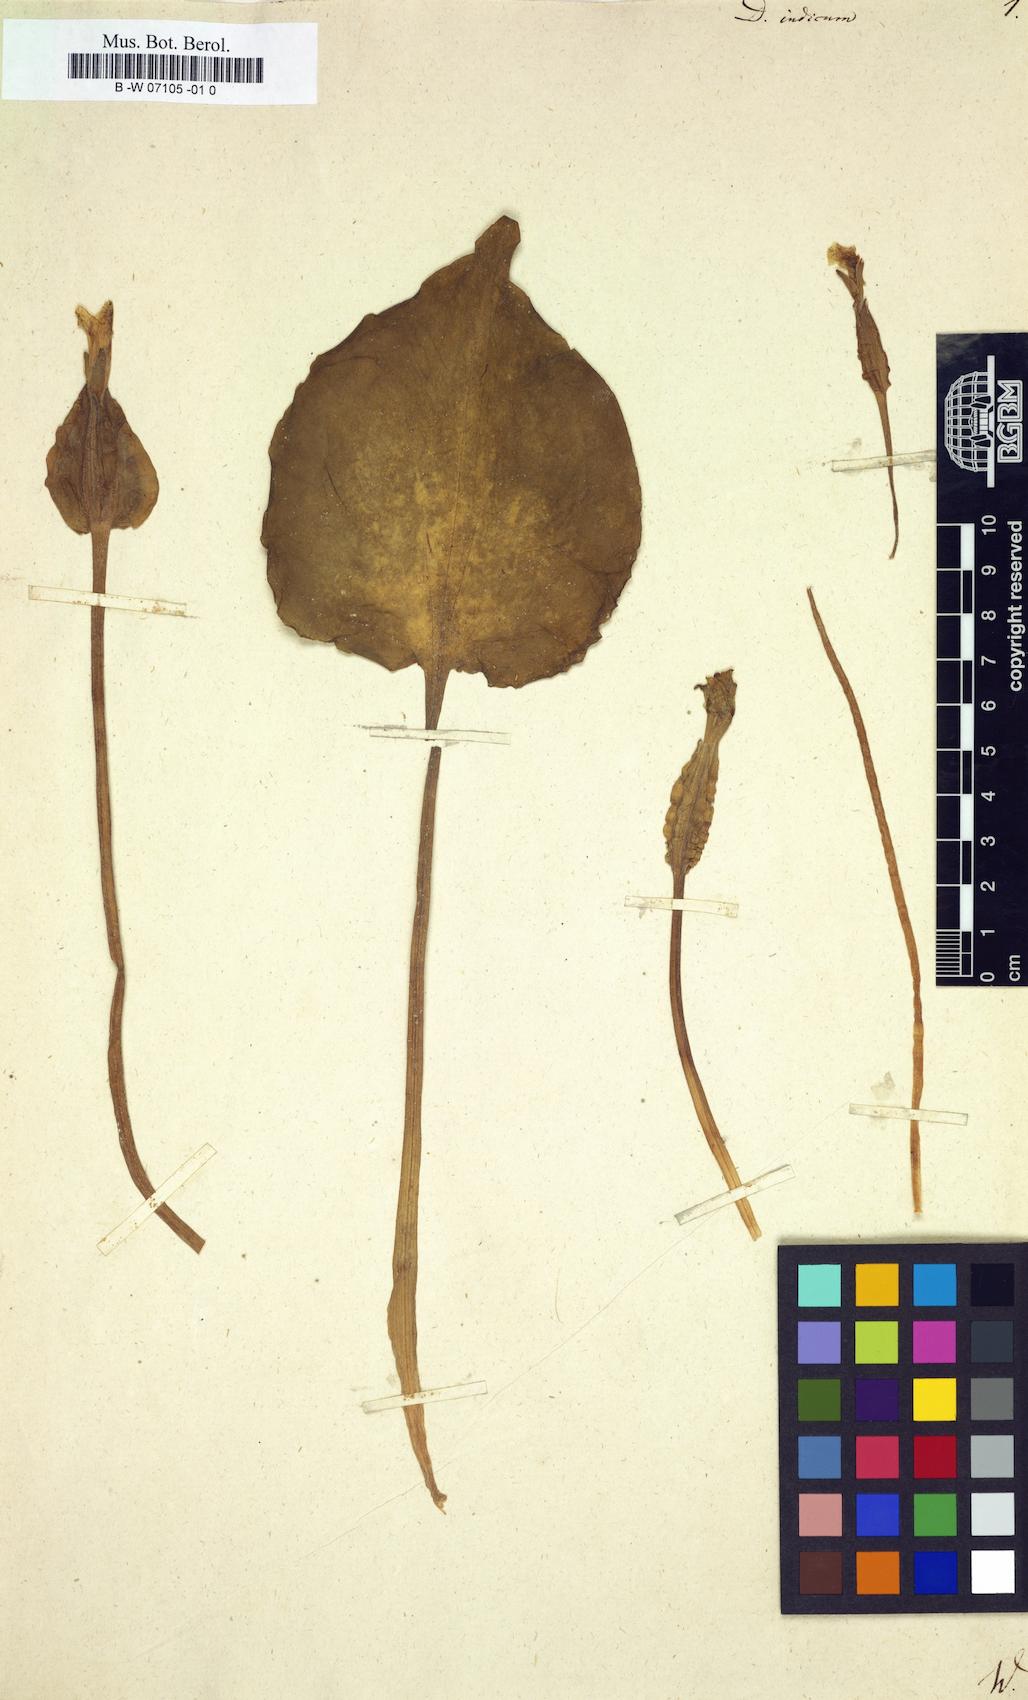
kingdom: Plantae
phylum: Tracheophyta
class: Liliopsida
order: Alismatales
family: Hydrocharitaceae
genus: Ottelia
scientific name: Ottelia alismoides
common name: Duck-lettuce
